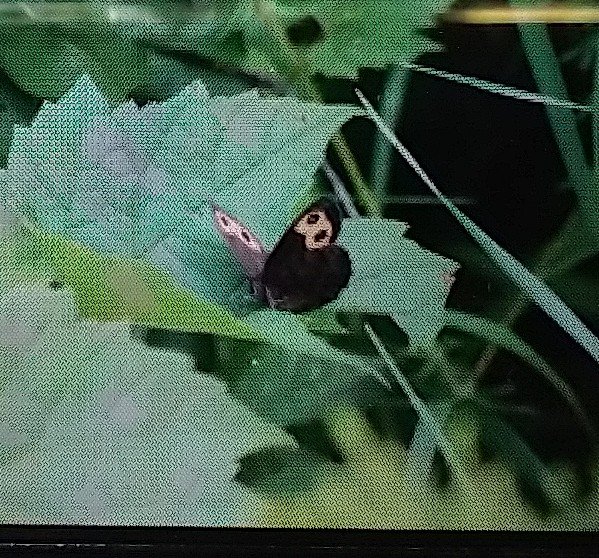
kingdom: Animalia
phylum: Arthropoda
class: Insecta
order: Lepidoptera
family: Nymphalidae
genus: Cercyonis
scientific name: Cercyonis pegala
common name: Common Wood-Nymph
